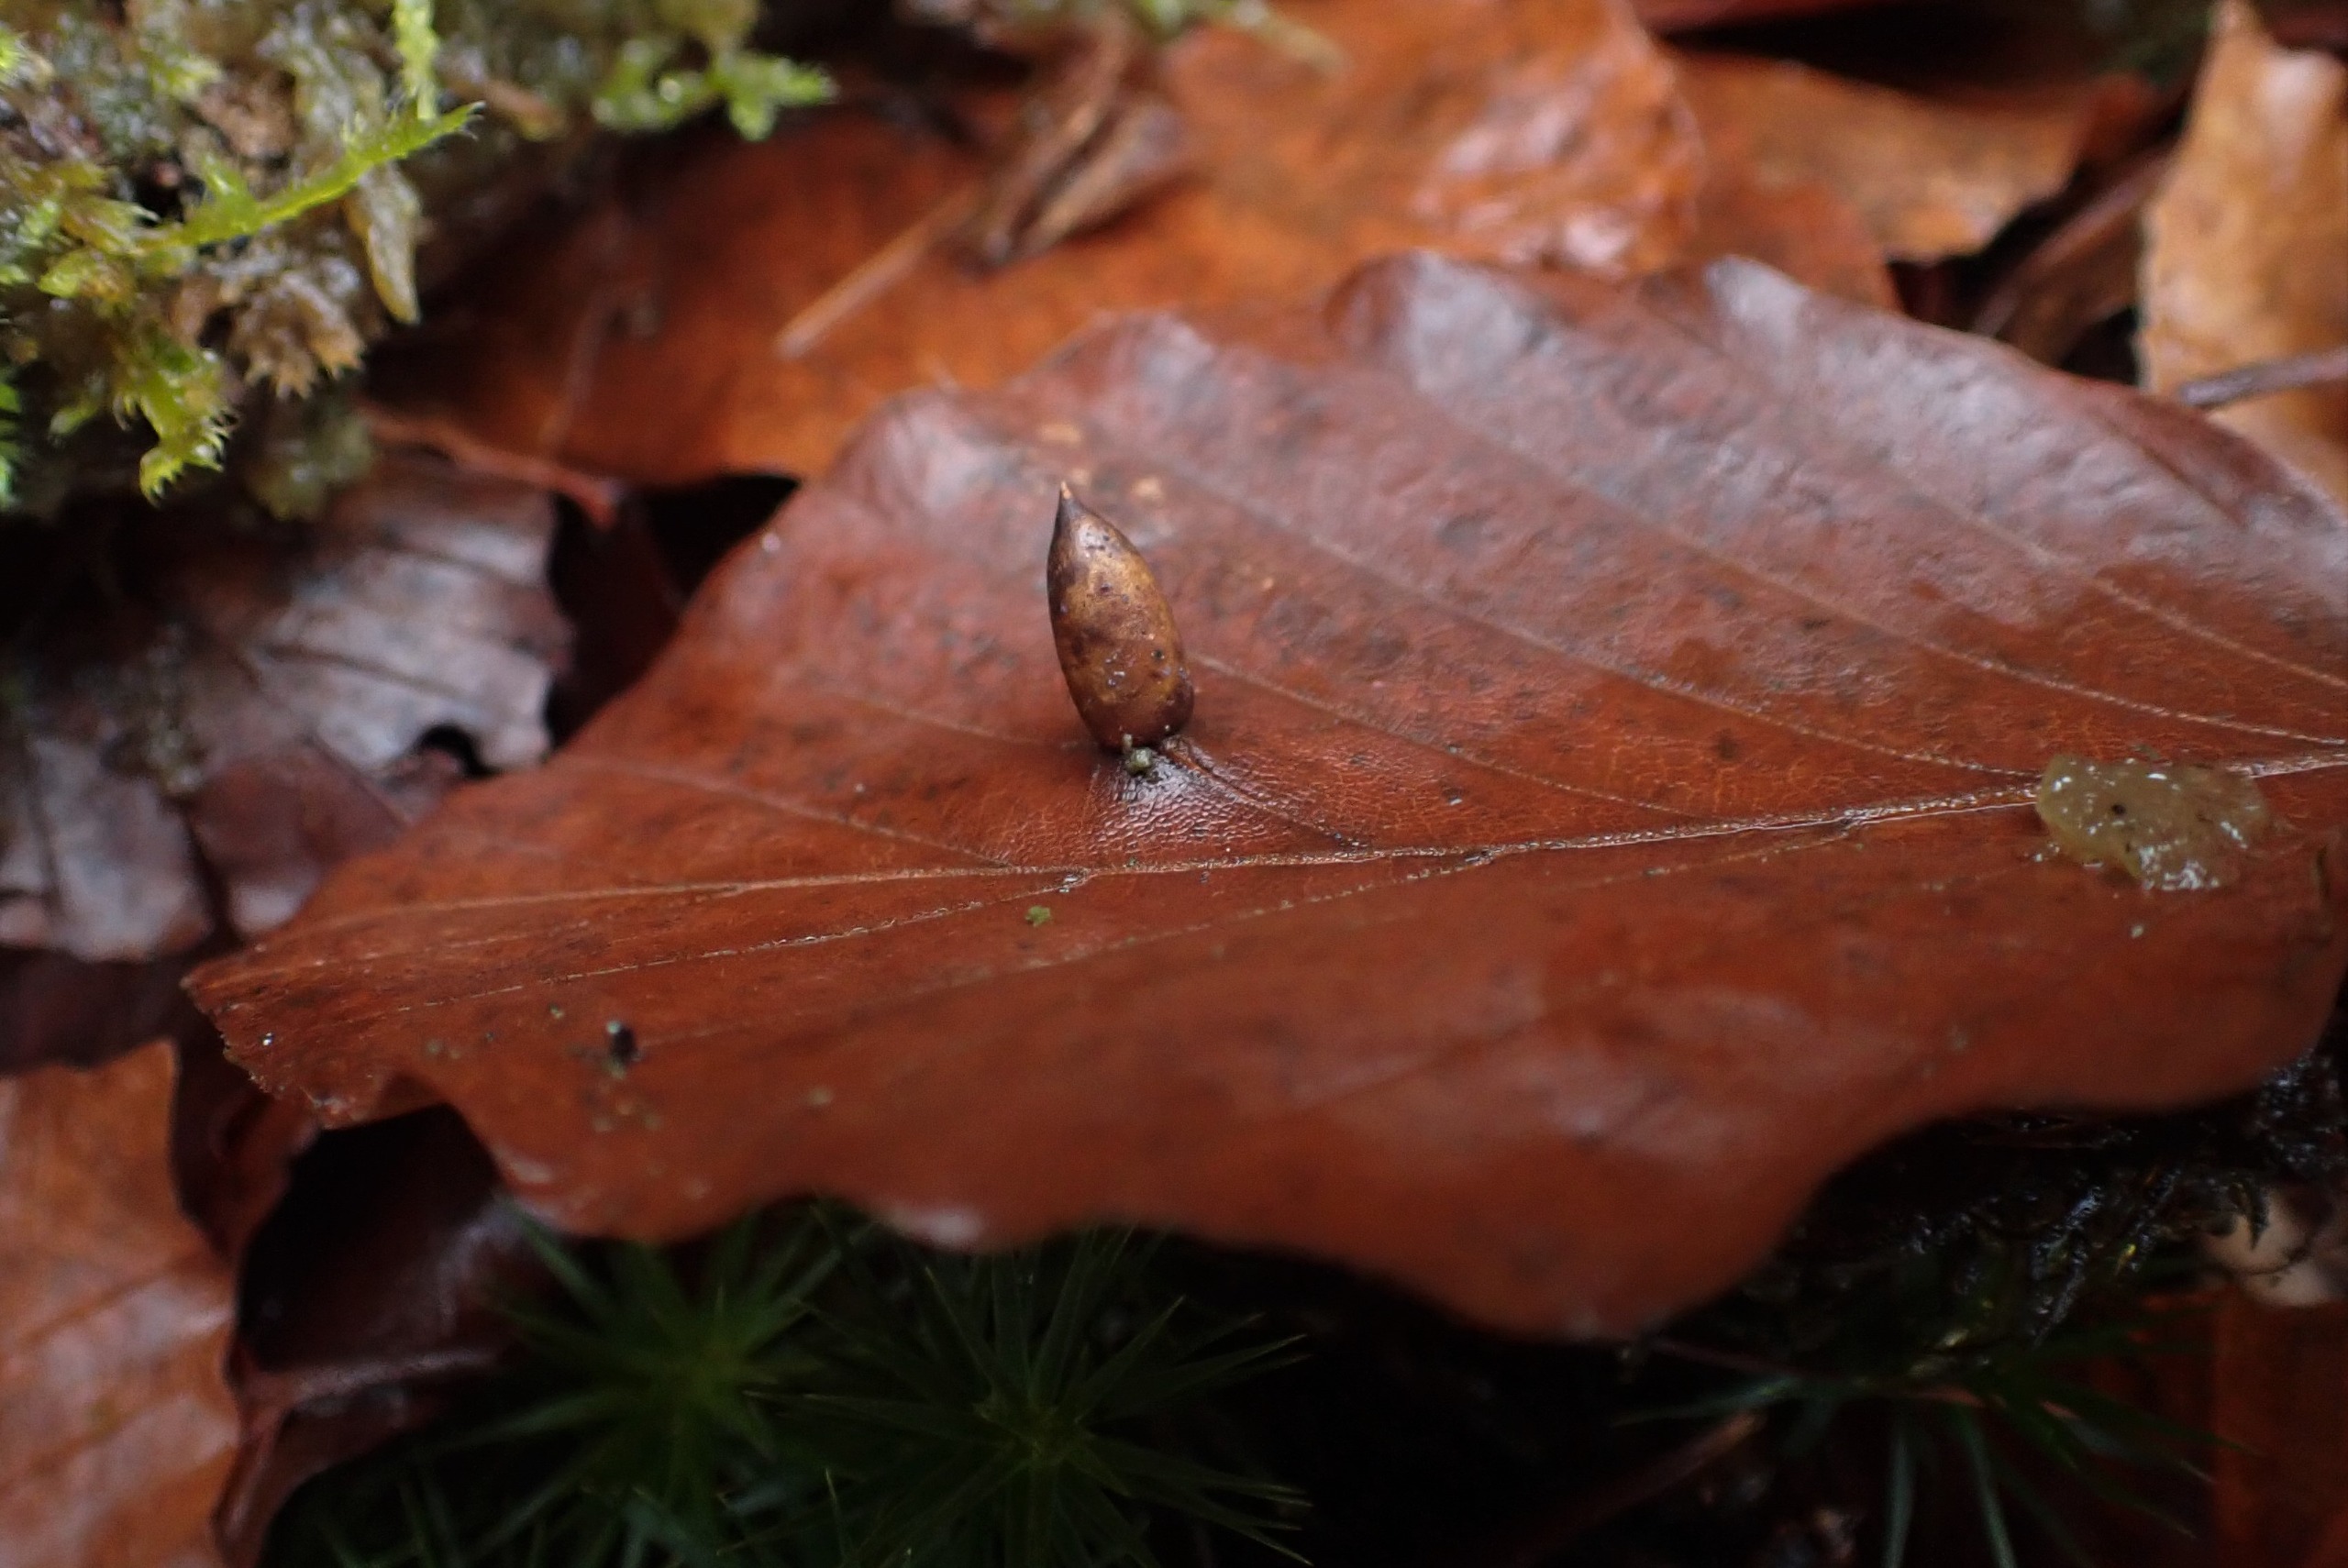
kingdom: Animalia
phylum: Arthropoda
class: Insecta
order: Diptera
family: Cecidomyiidae
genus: Mikiola
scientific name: Mikiola fagi
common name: Bøgegalmyg
